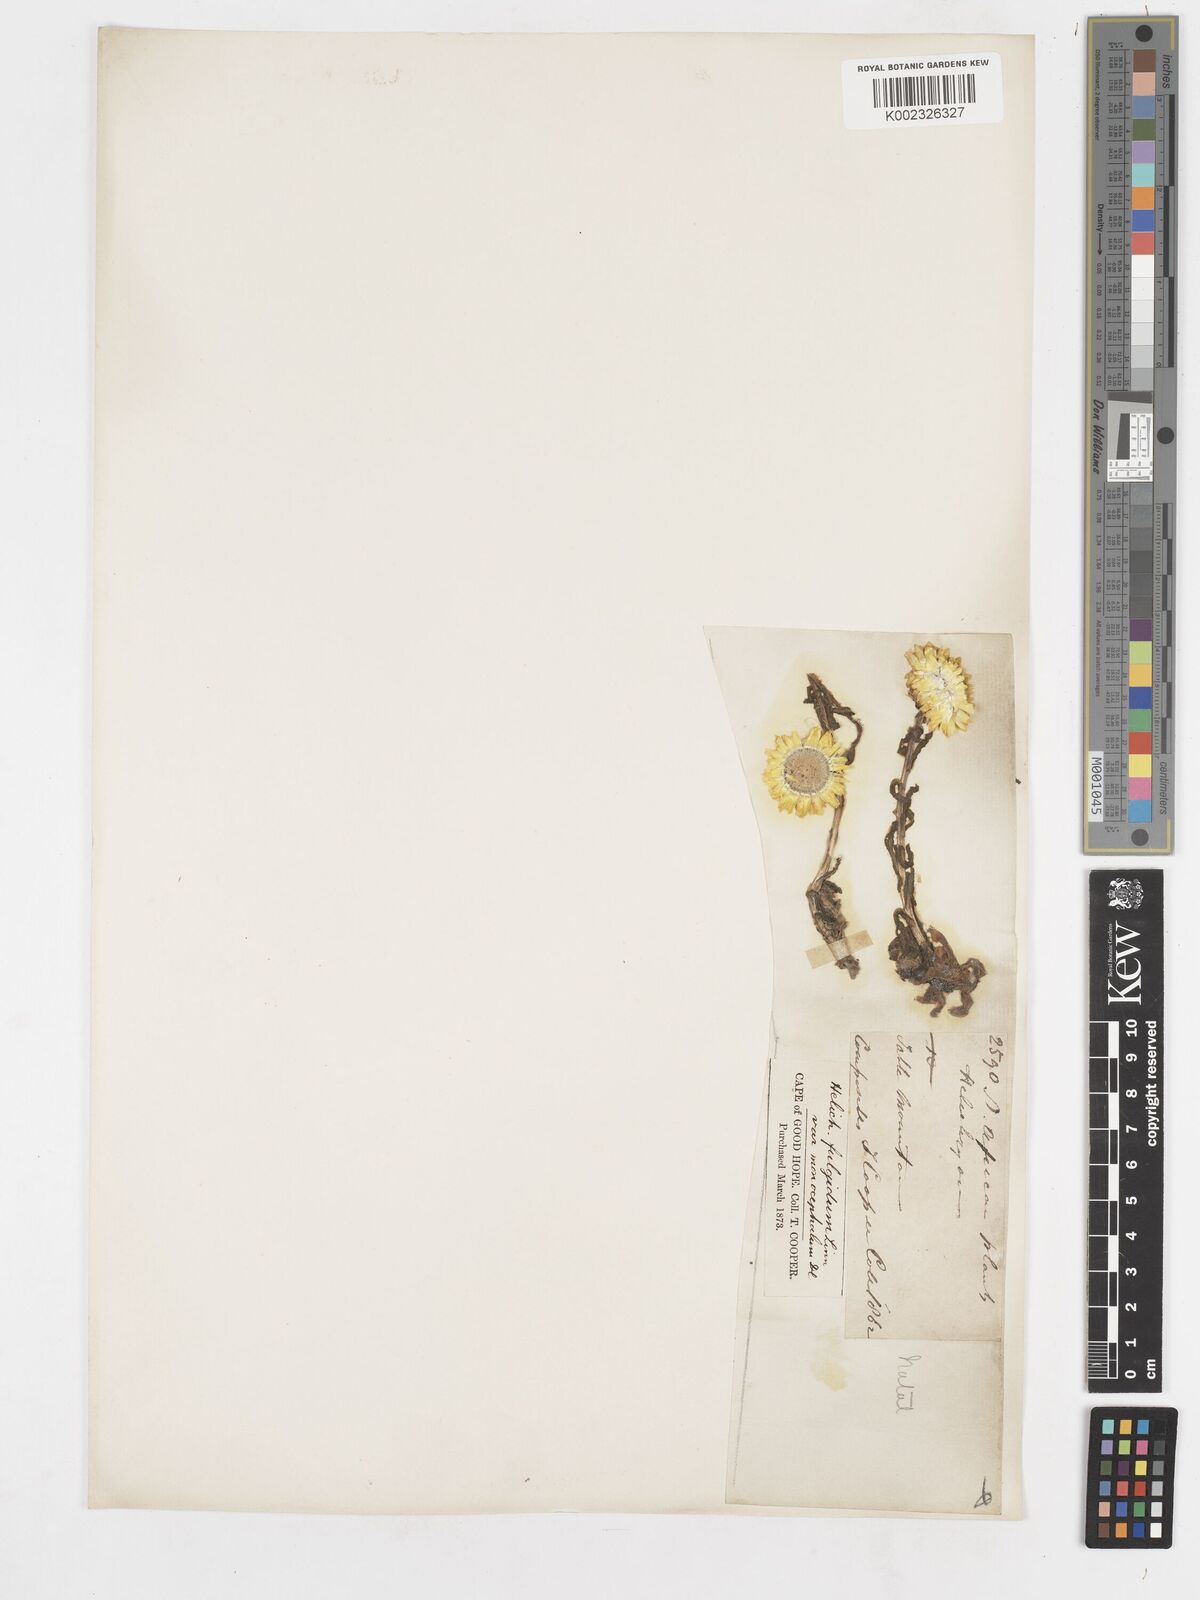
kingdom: Plantae
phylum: Tracheophyta
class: Magnoliopsida
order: Asterales
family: Asteraceae
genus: Helichrysum
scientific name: Helichrysum aureum
